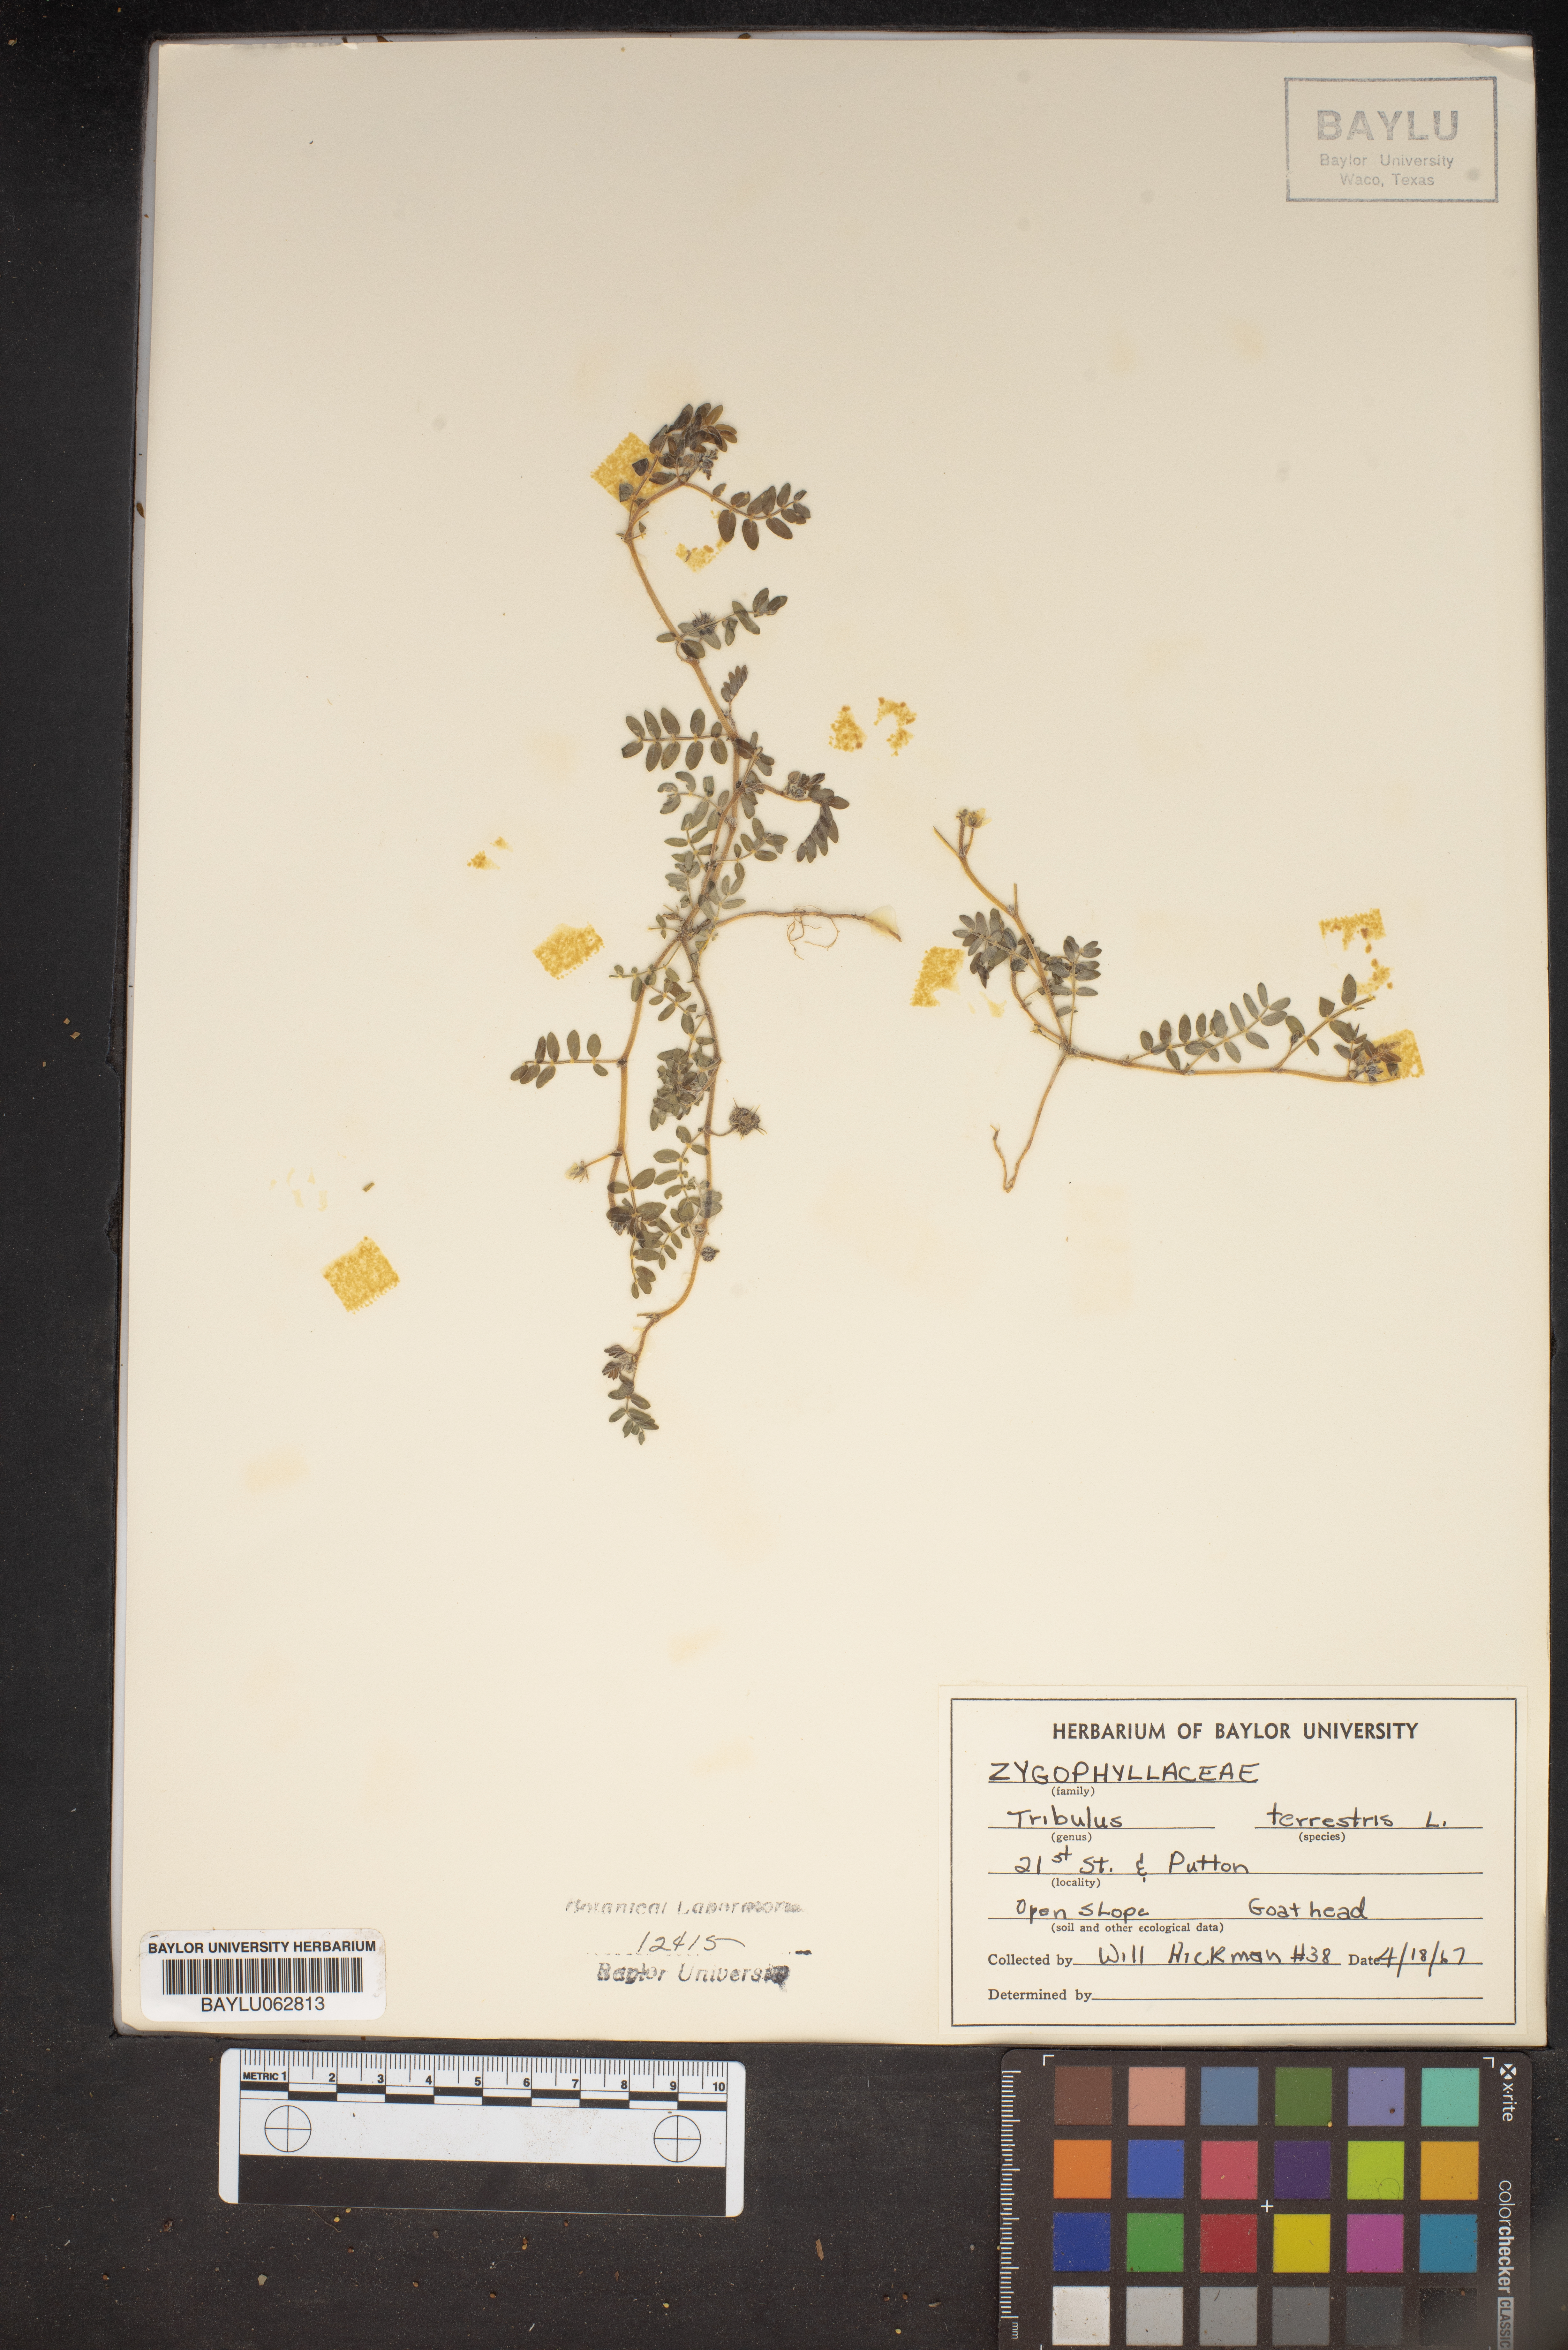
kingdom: Plantae
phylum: Tracheophyta
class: Magnoliopsida
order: Zygophyllales
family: Zygophyllaceae
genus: Tribulus
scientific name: Tribulus terrestris
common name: Puncturevine
